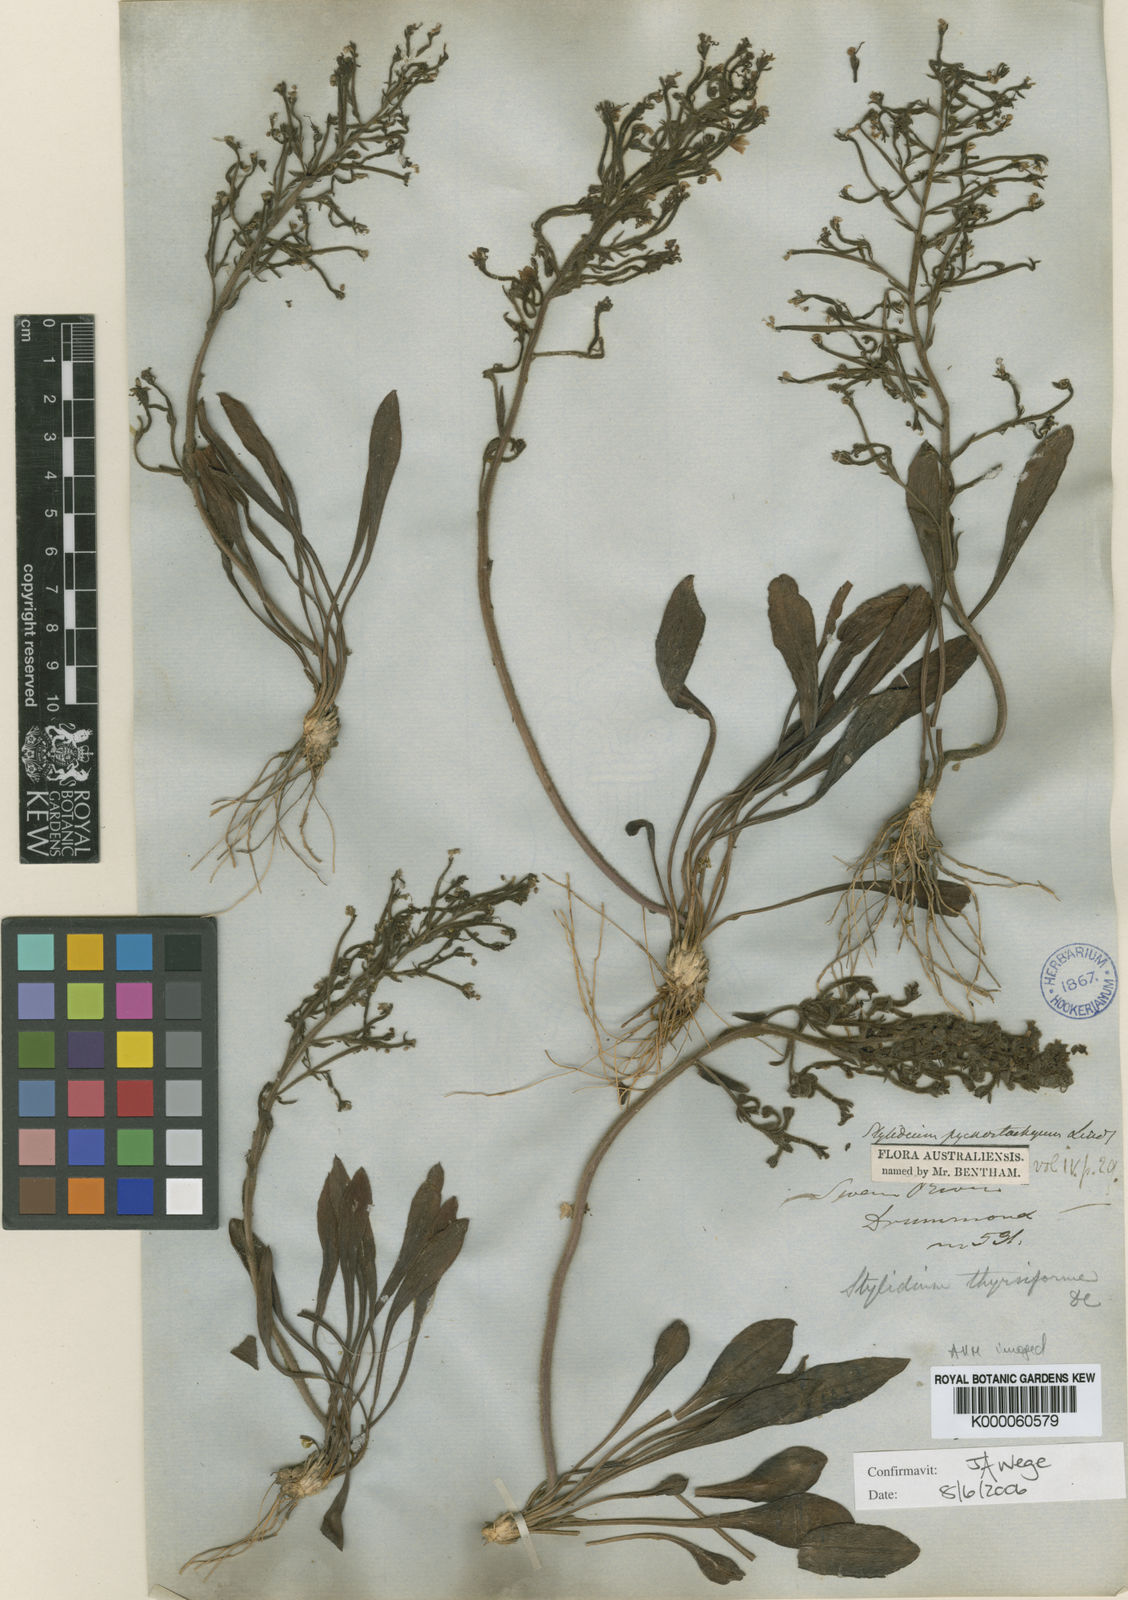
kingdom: Plantae
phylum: Tracheophyta
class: Magnoliopsida
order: Asterales
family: Stylidiaceae
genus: Stylidium
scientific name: Stylidium pycnostachyum
